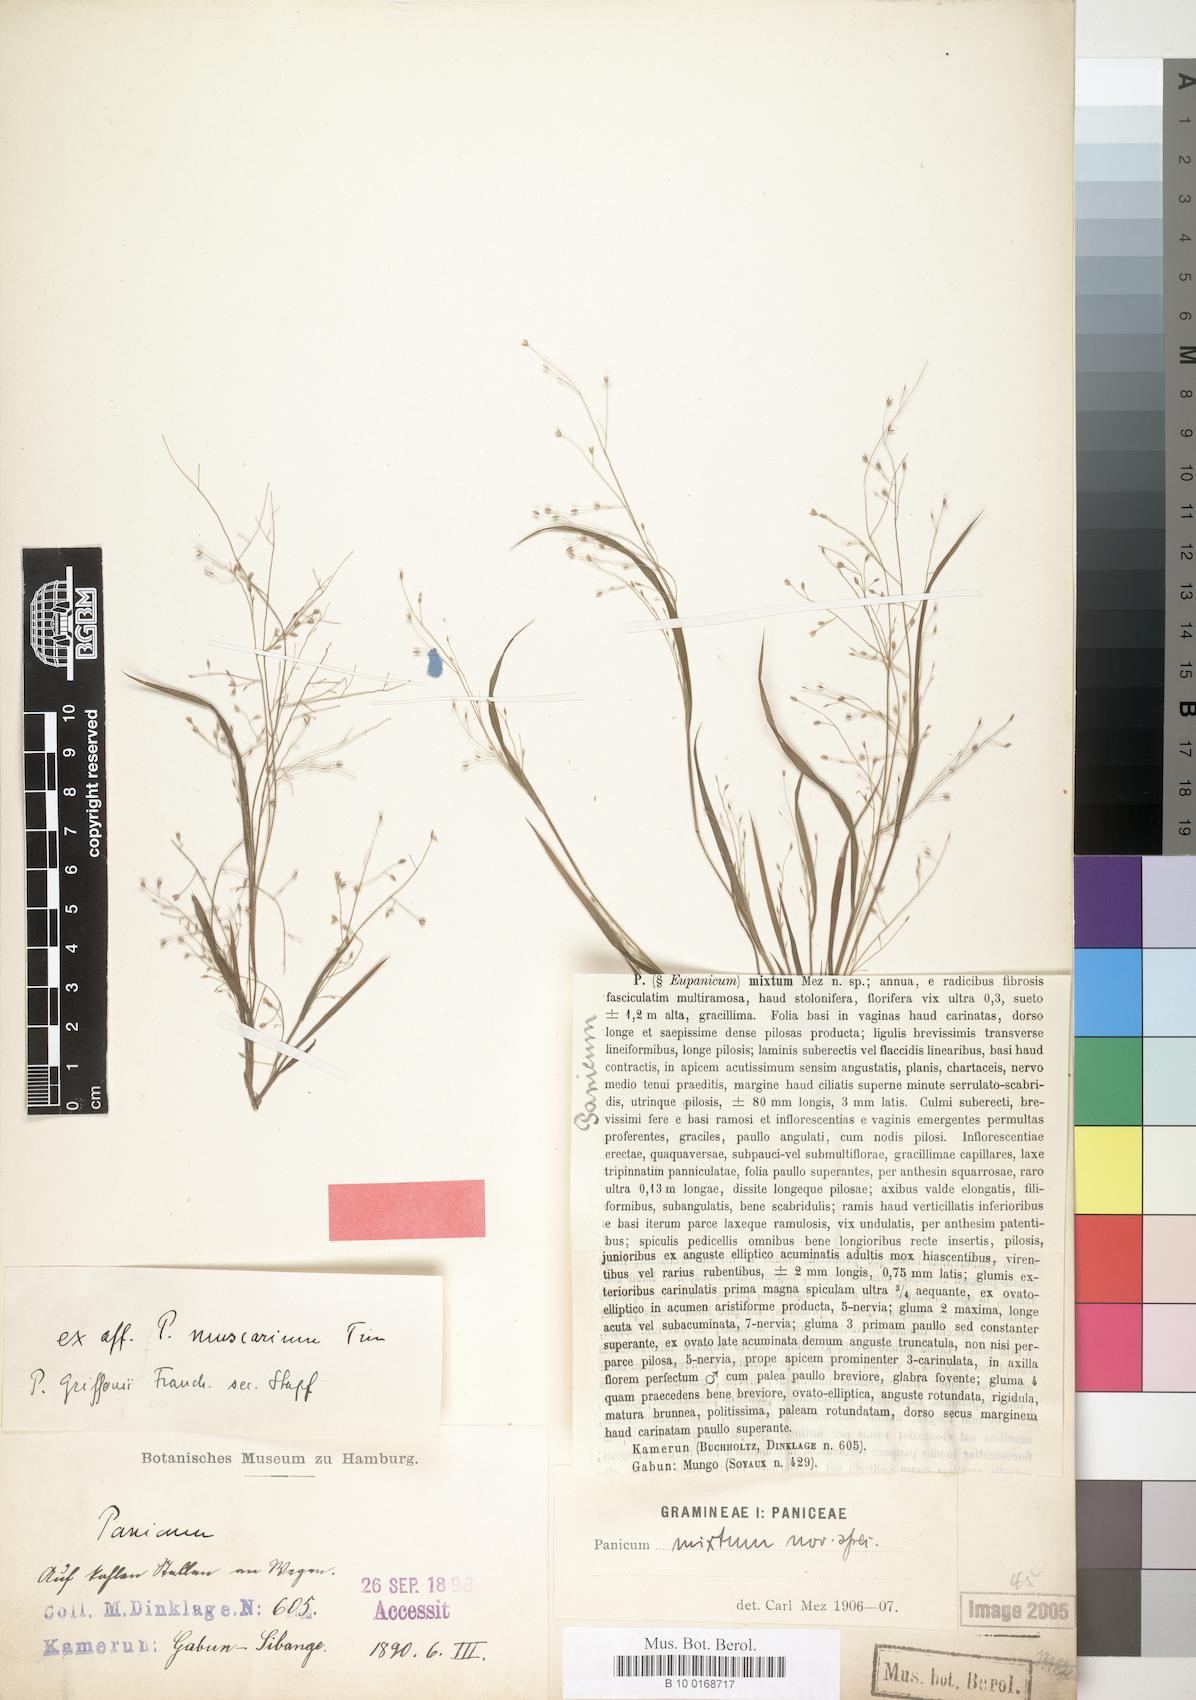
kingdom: Plantae
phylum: Tracheophyta
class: Liliopsida
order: Poales
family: Poaceae
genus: Panicum
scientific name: Panicum griffonii
